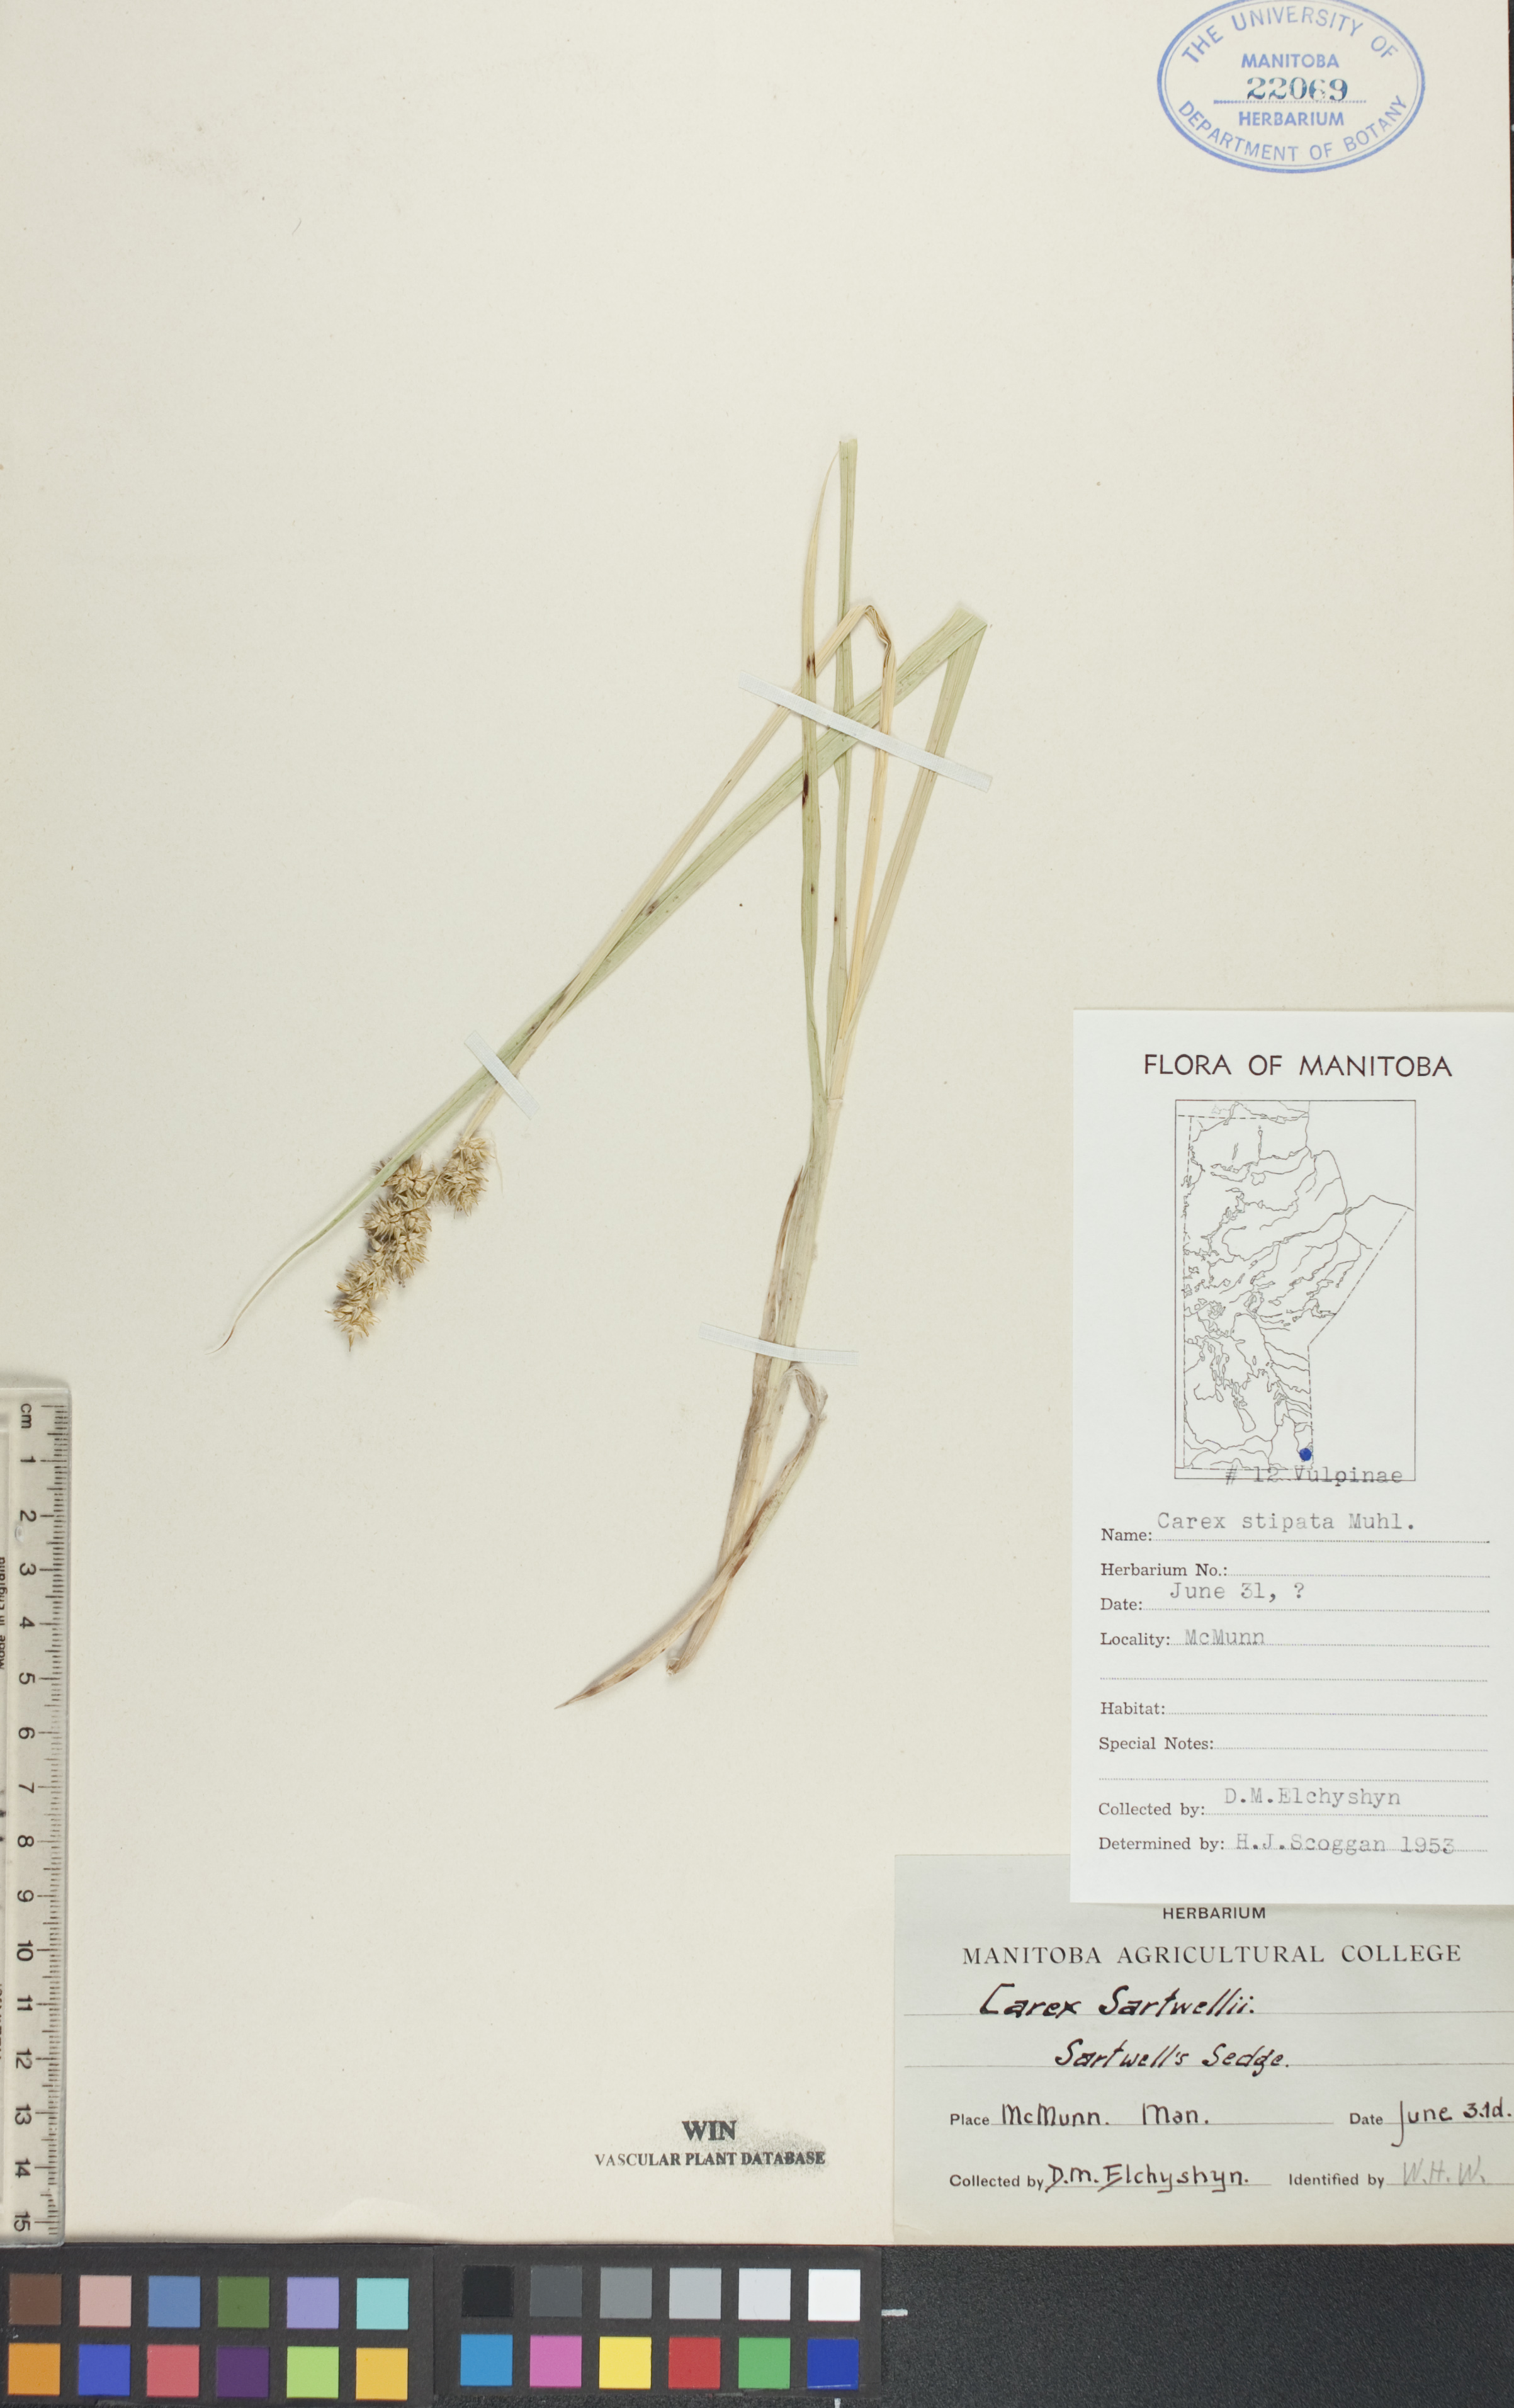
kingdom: Plantae
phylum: Tracheophyta
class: Liliopsida
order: Poales
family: Cyperaceae
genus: Carex
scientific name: Carex stipata
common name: Awl-fruited sedge
